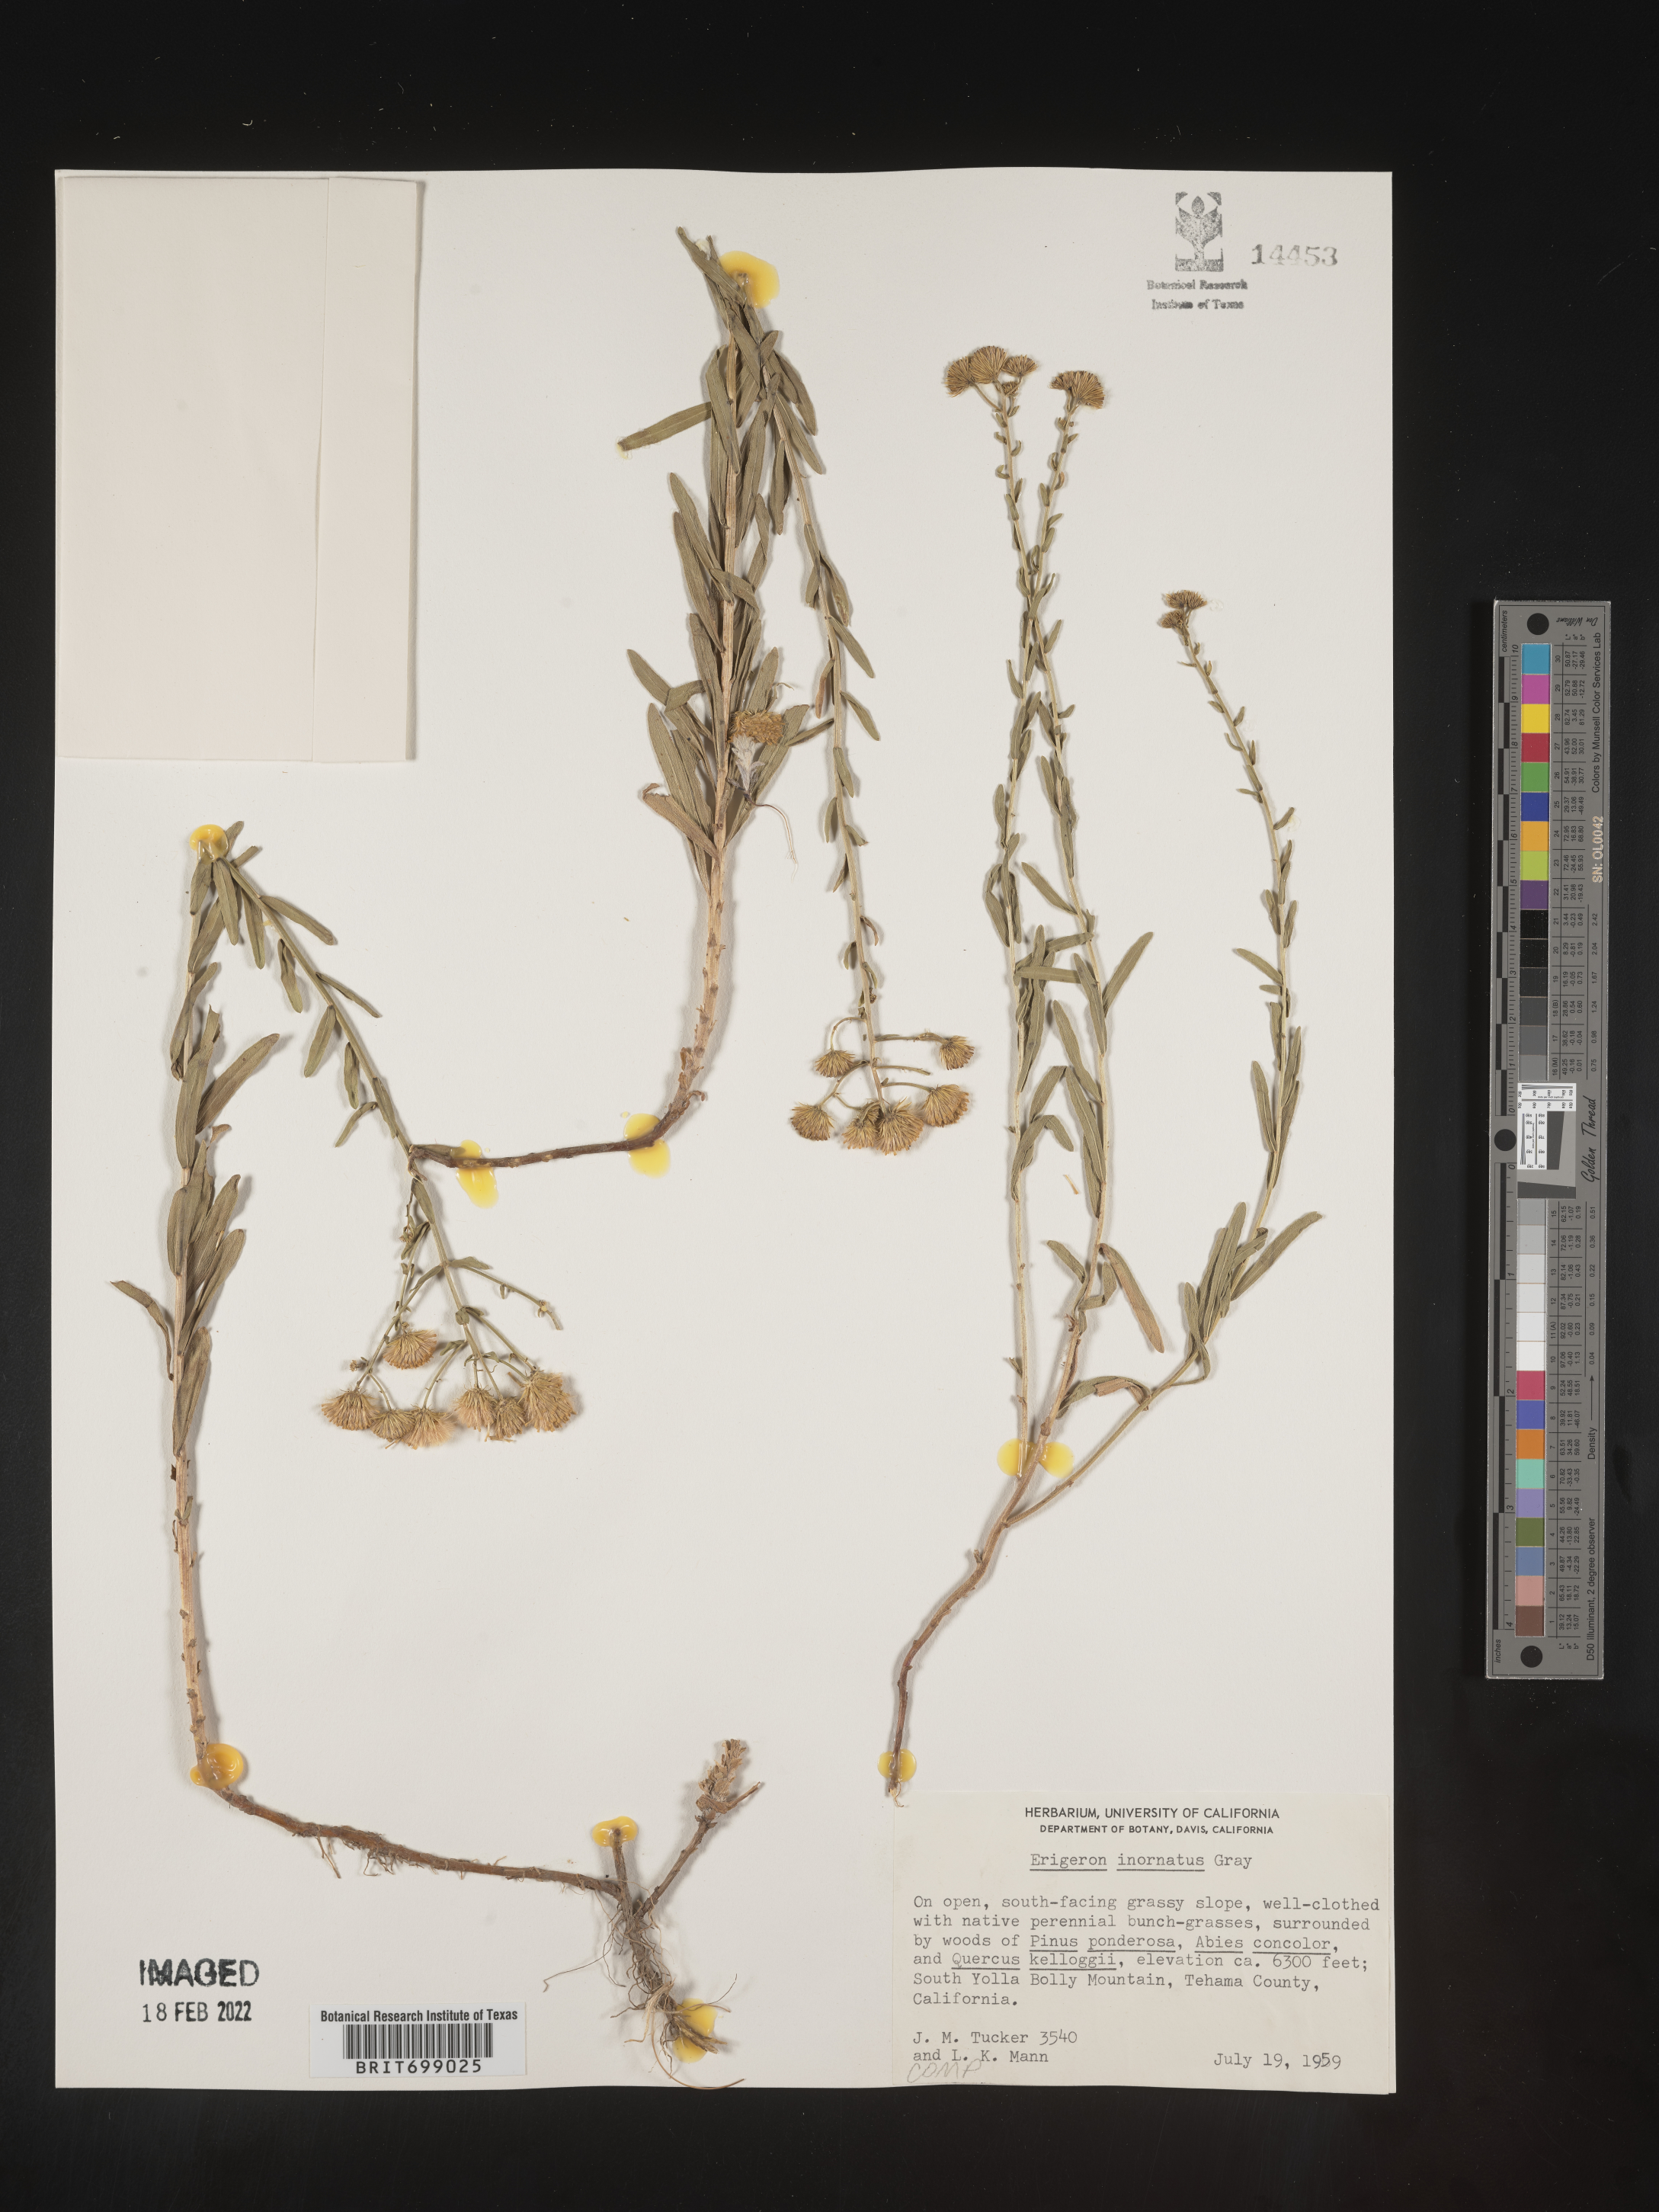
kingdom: Plantae
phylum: Tracheophyta
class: Magnoliopsida
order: Asterales
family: Asteraceae
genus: Erigeron
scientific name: Erigeron inornatus
